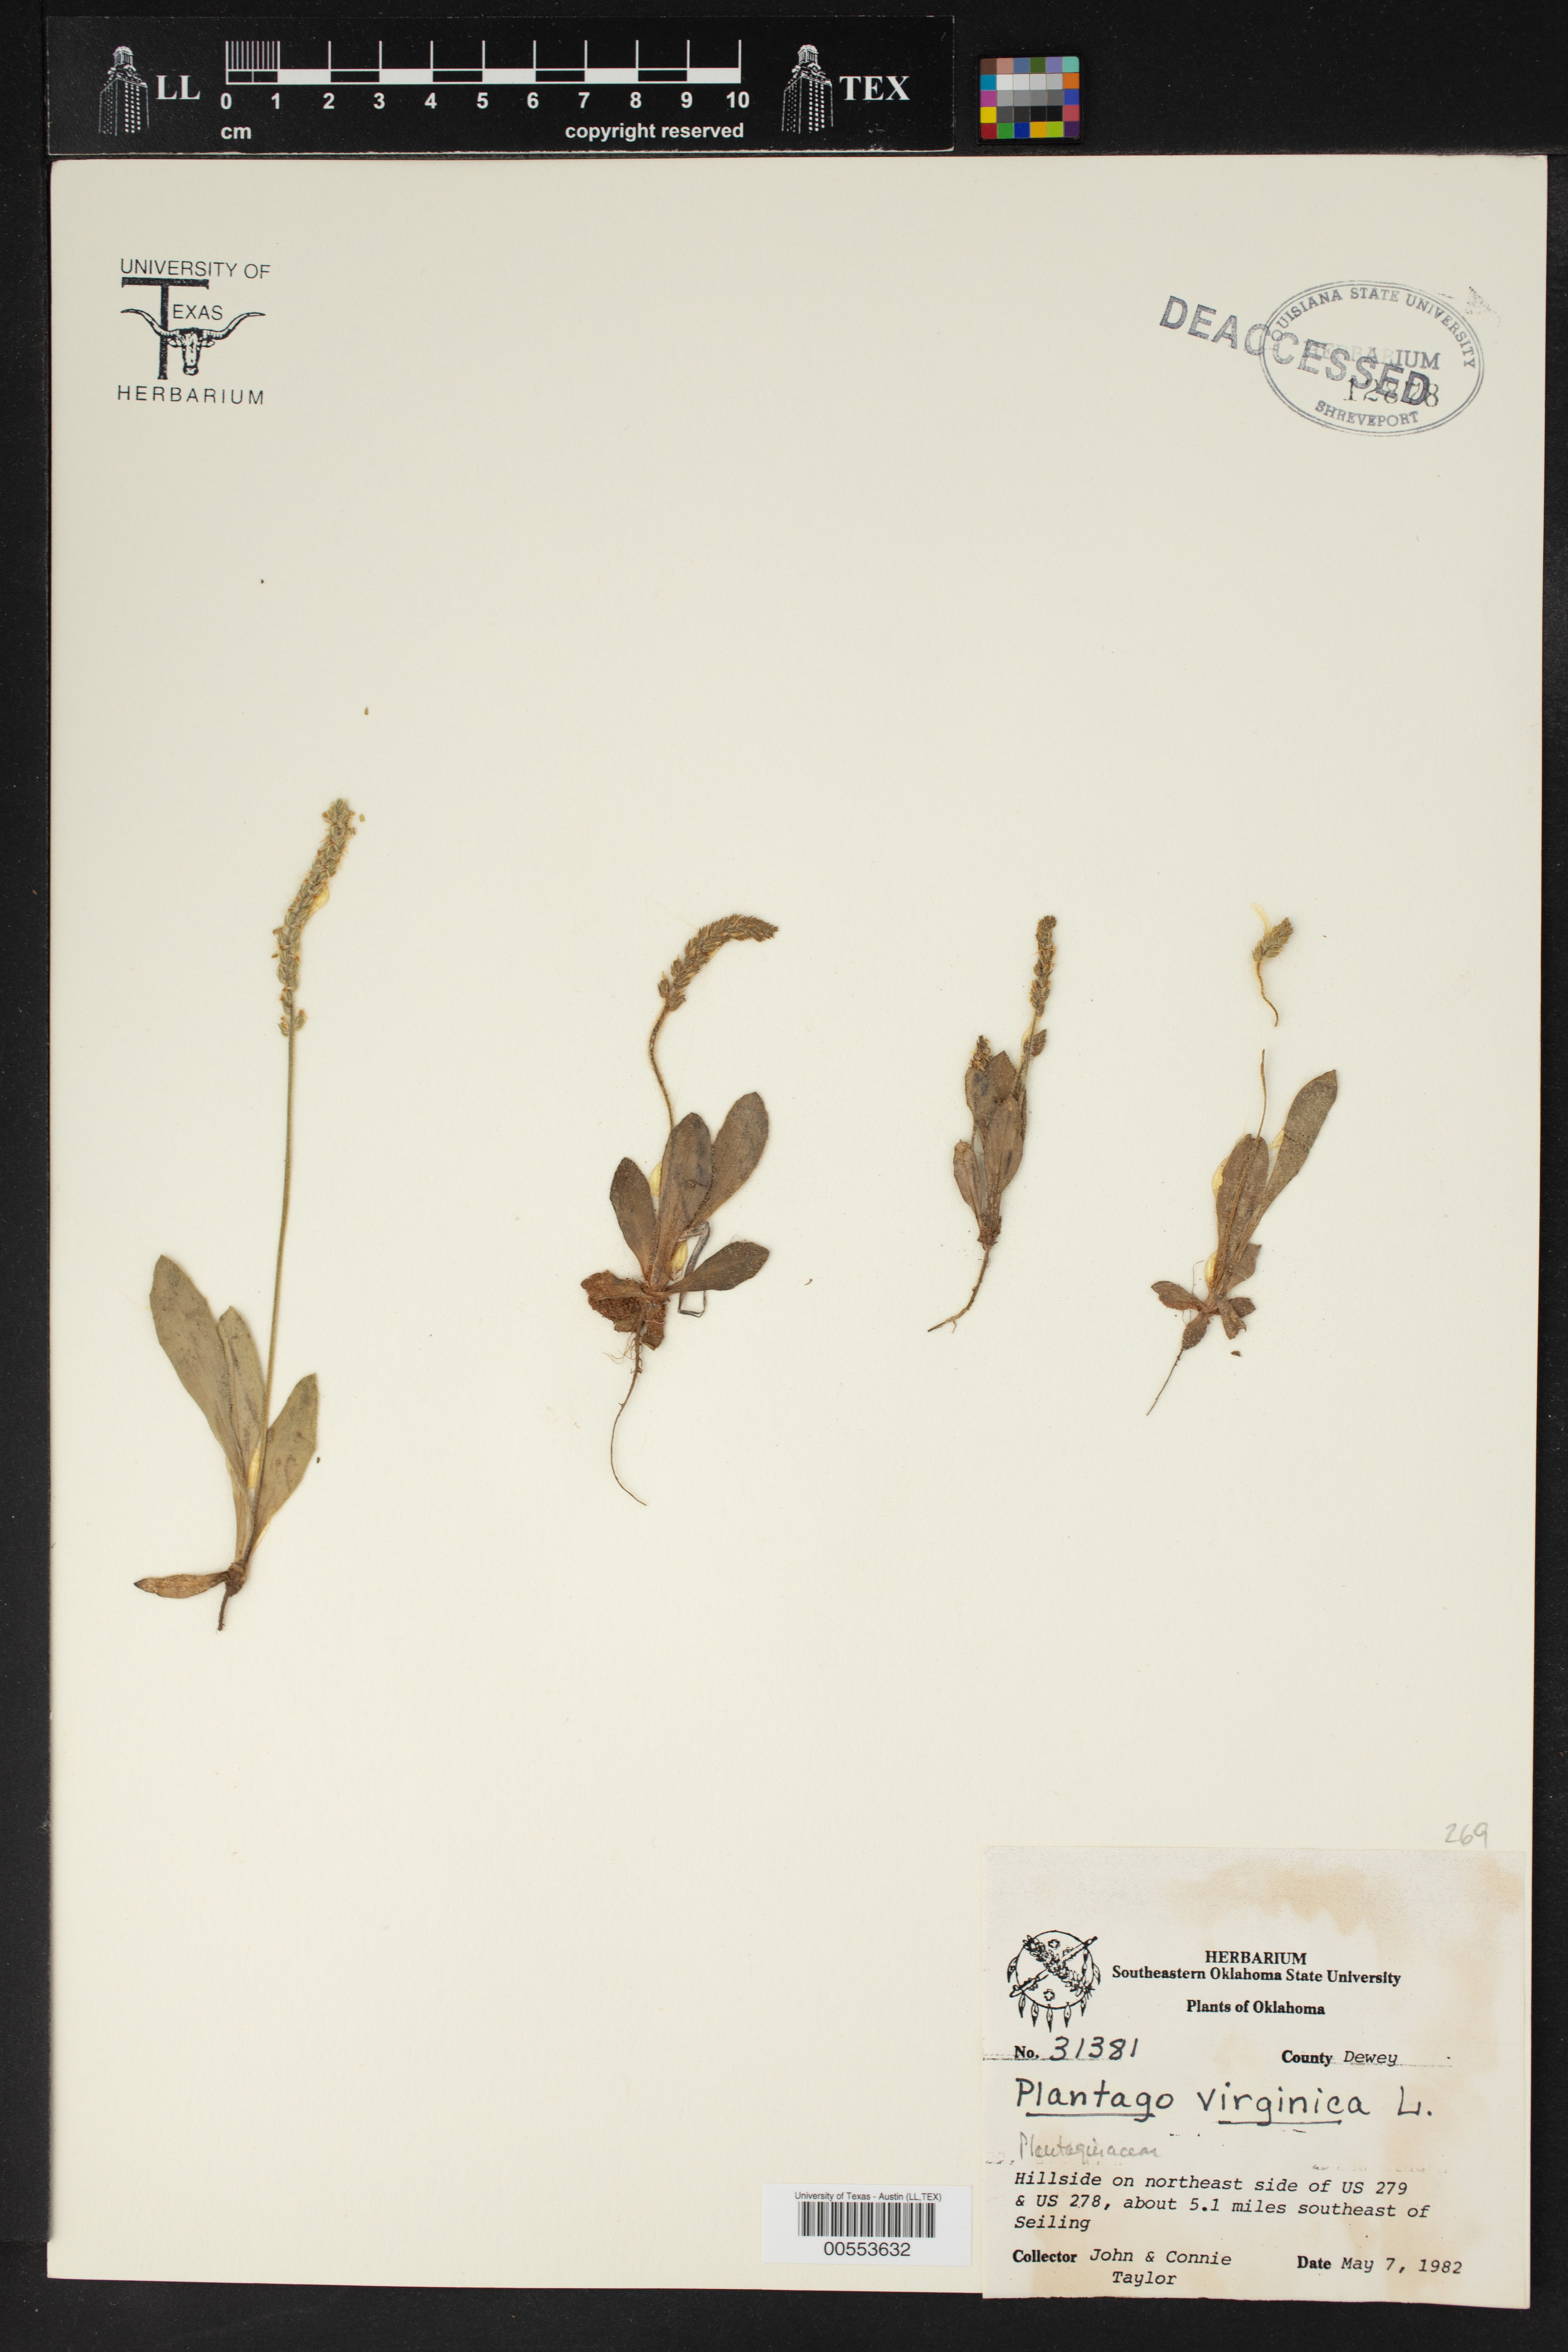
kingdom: Plantae
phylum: Tracheophyta
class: Magnoliopsida
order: Lamiales
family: Plantaginaceae
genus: Plantago
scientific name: Plantago virginica
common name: Hoary plantain
